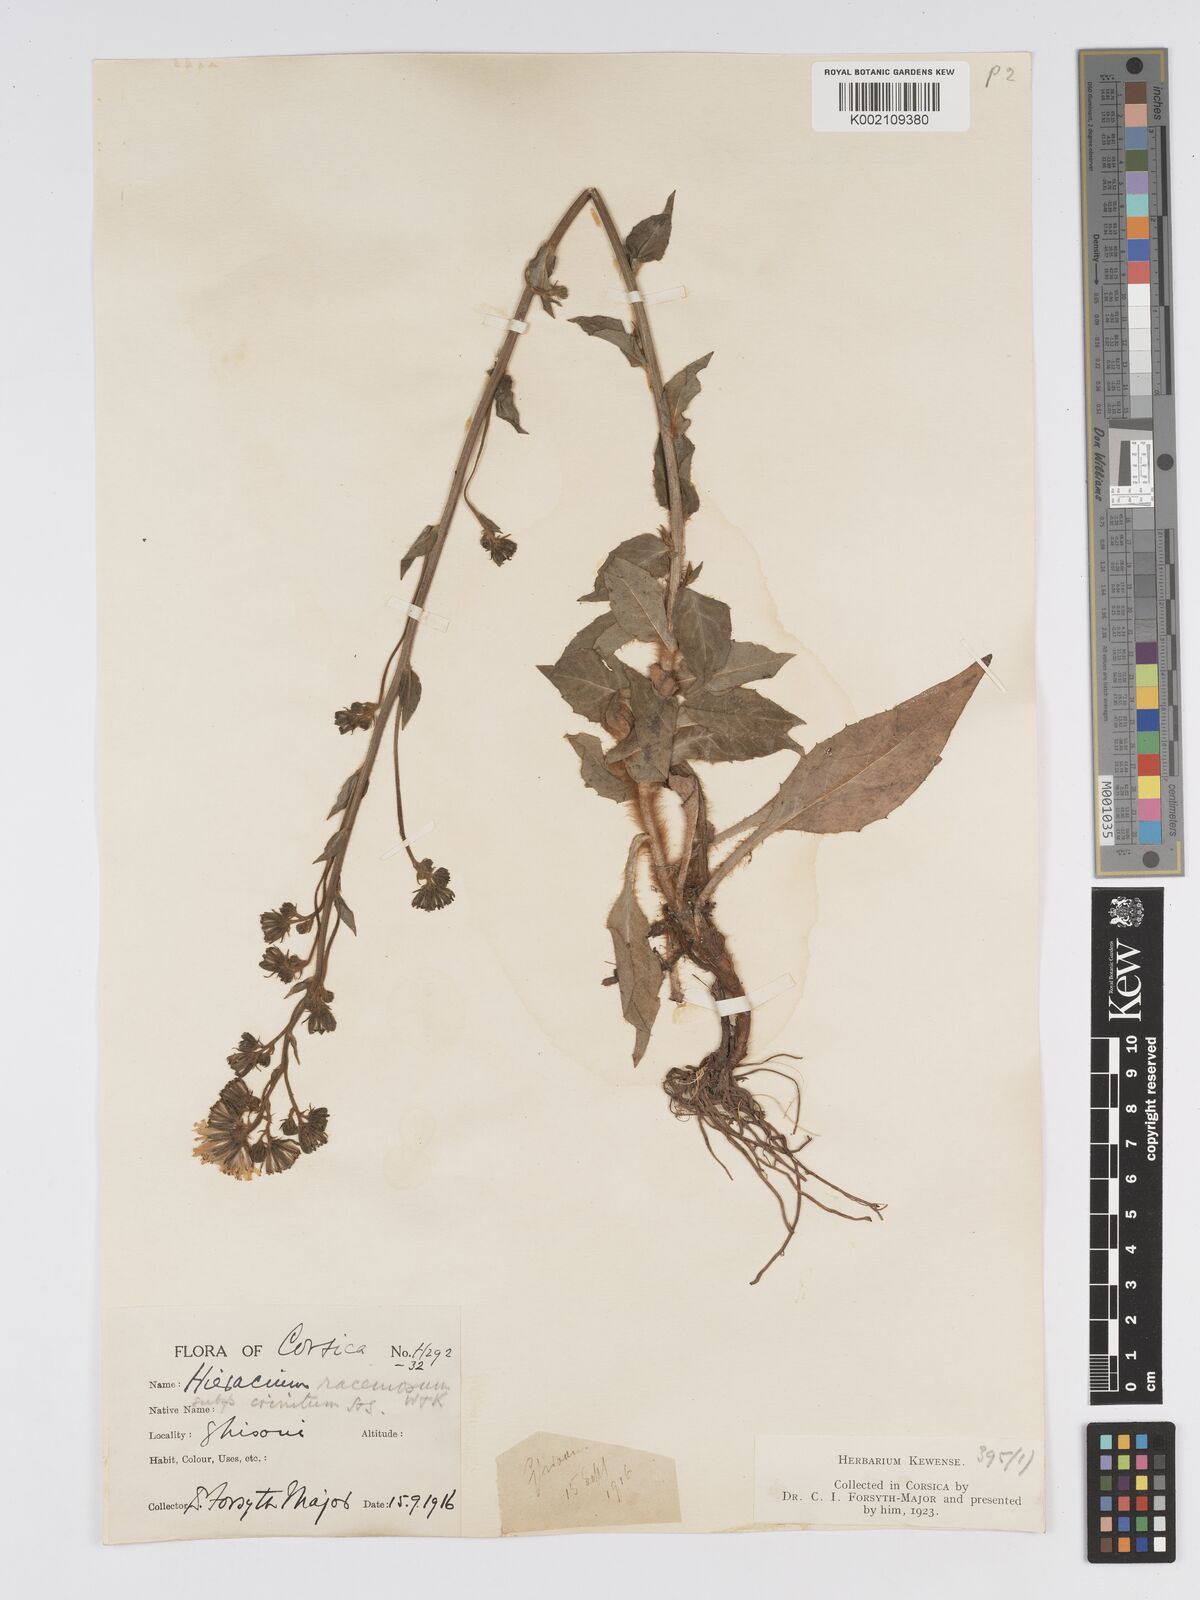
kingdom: Plantae
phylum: Tracheophyta
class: Magnoliopsida
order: Asterales
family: Asteraceae
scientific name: Asteraceae
